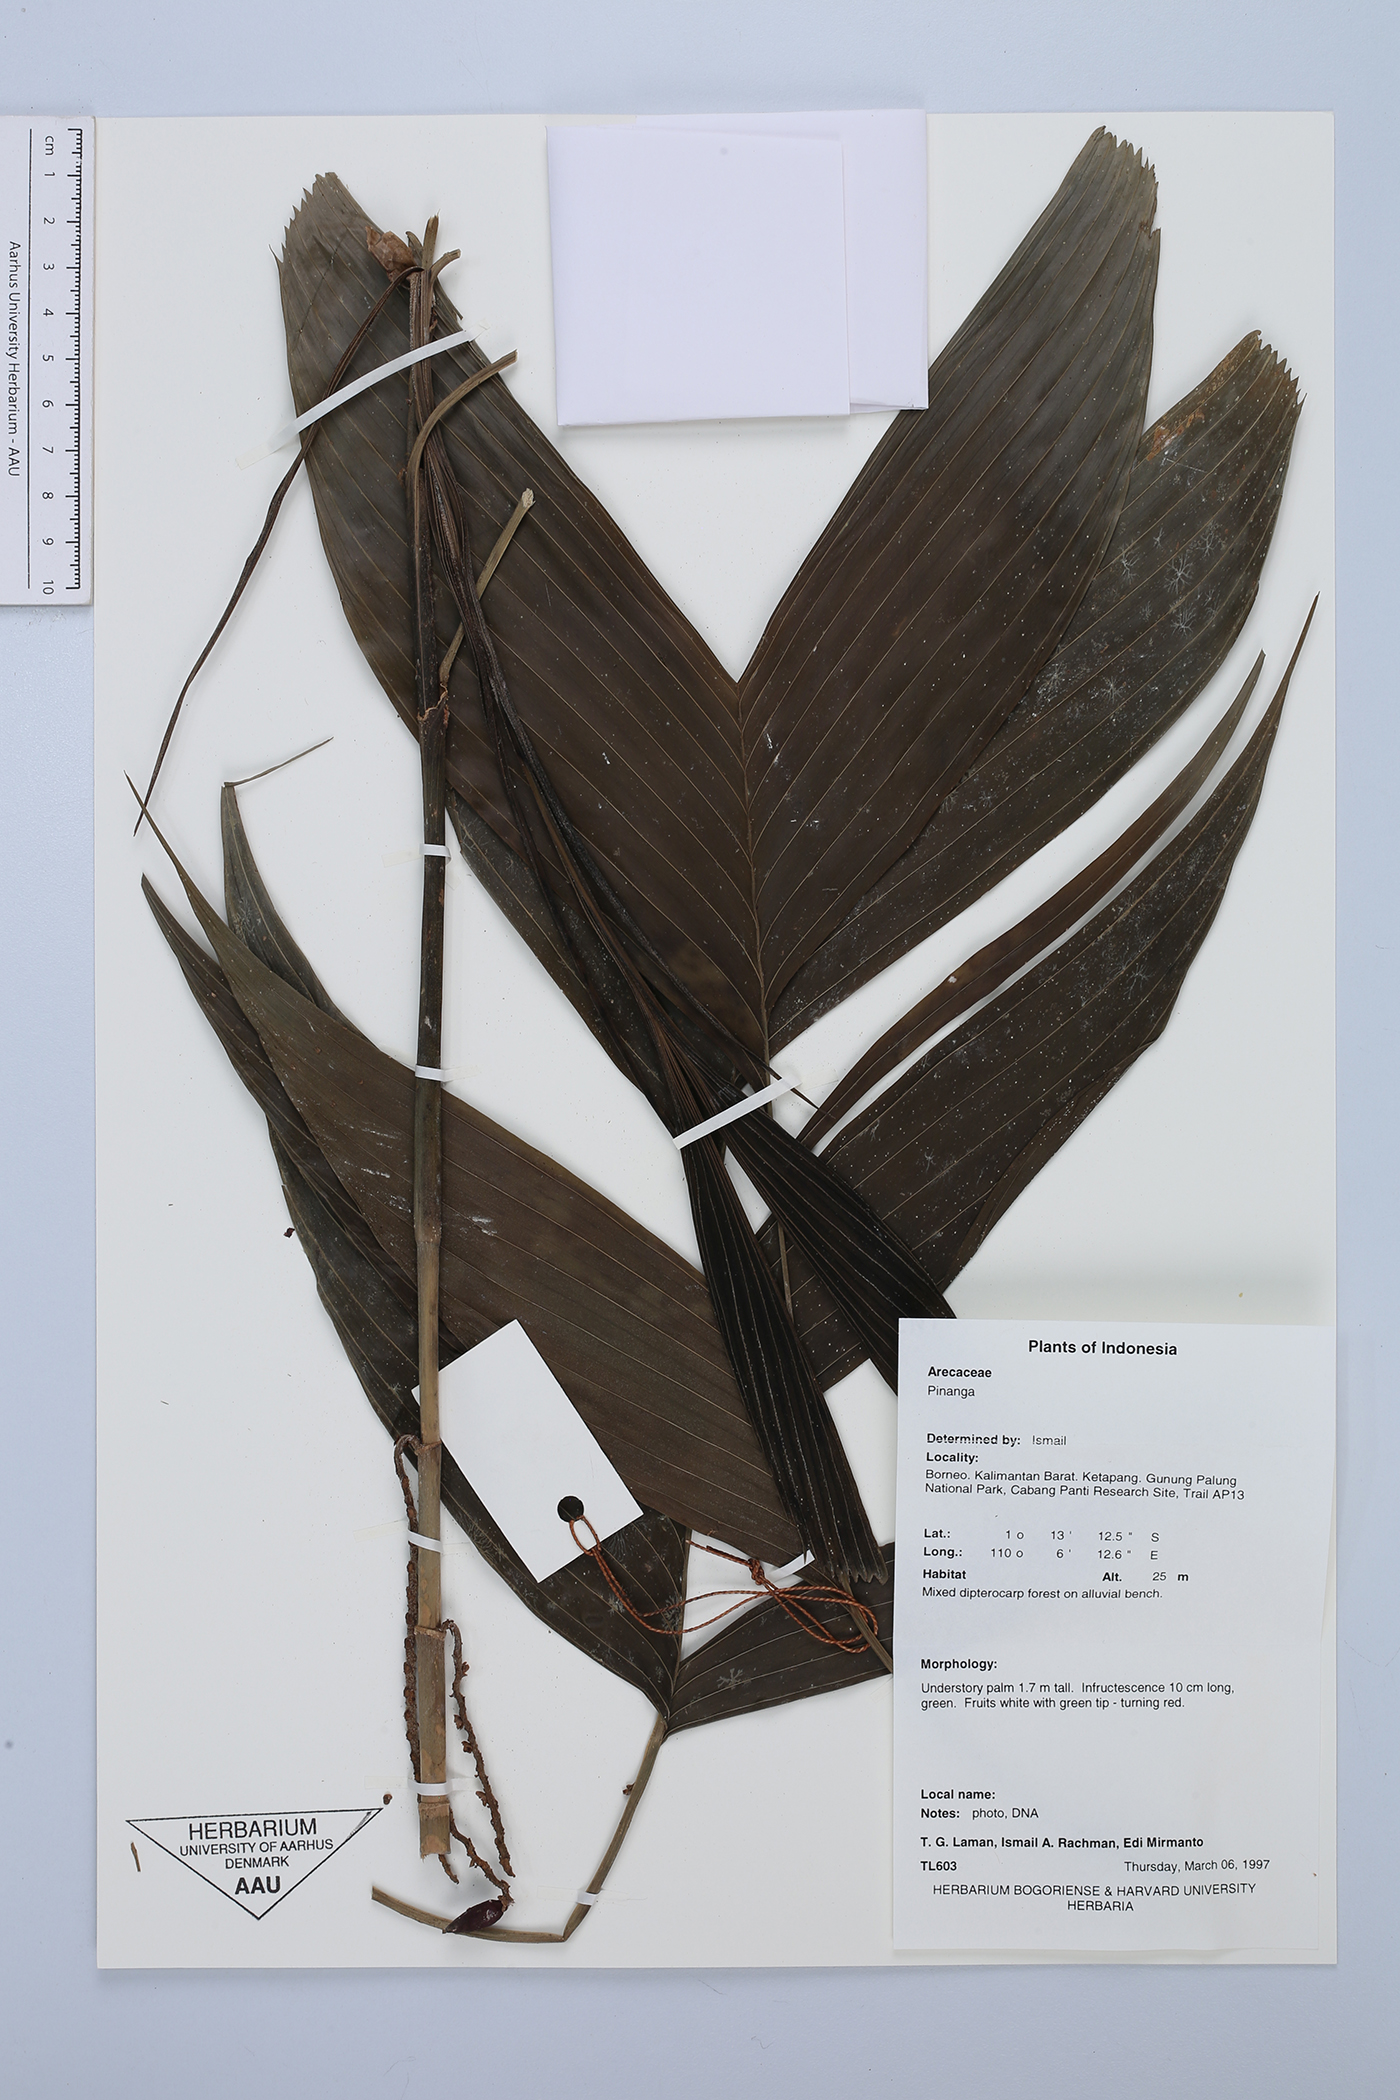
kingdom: Plantae
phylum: Tracheophyta
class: Liliopsida
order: Arecales
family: Arecaceae
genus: Pinanga
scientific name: Pinanga
